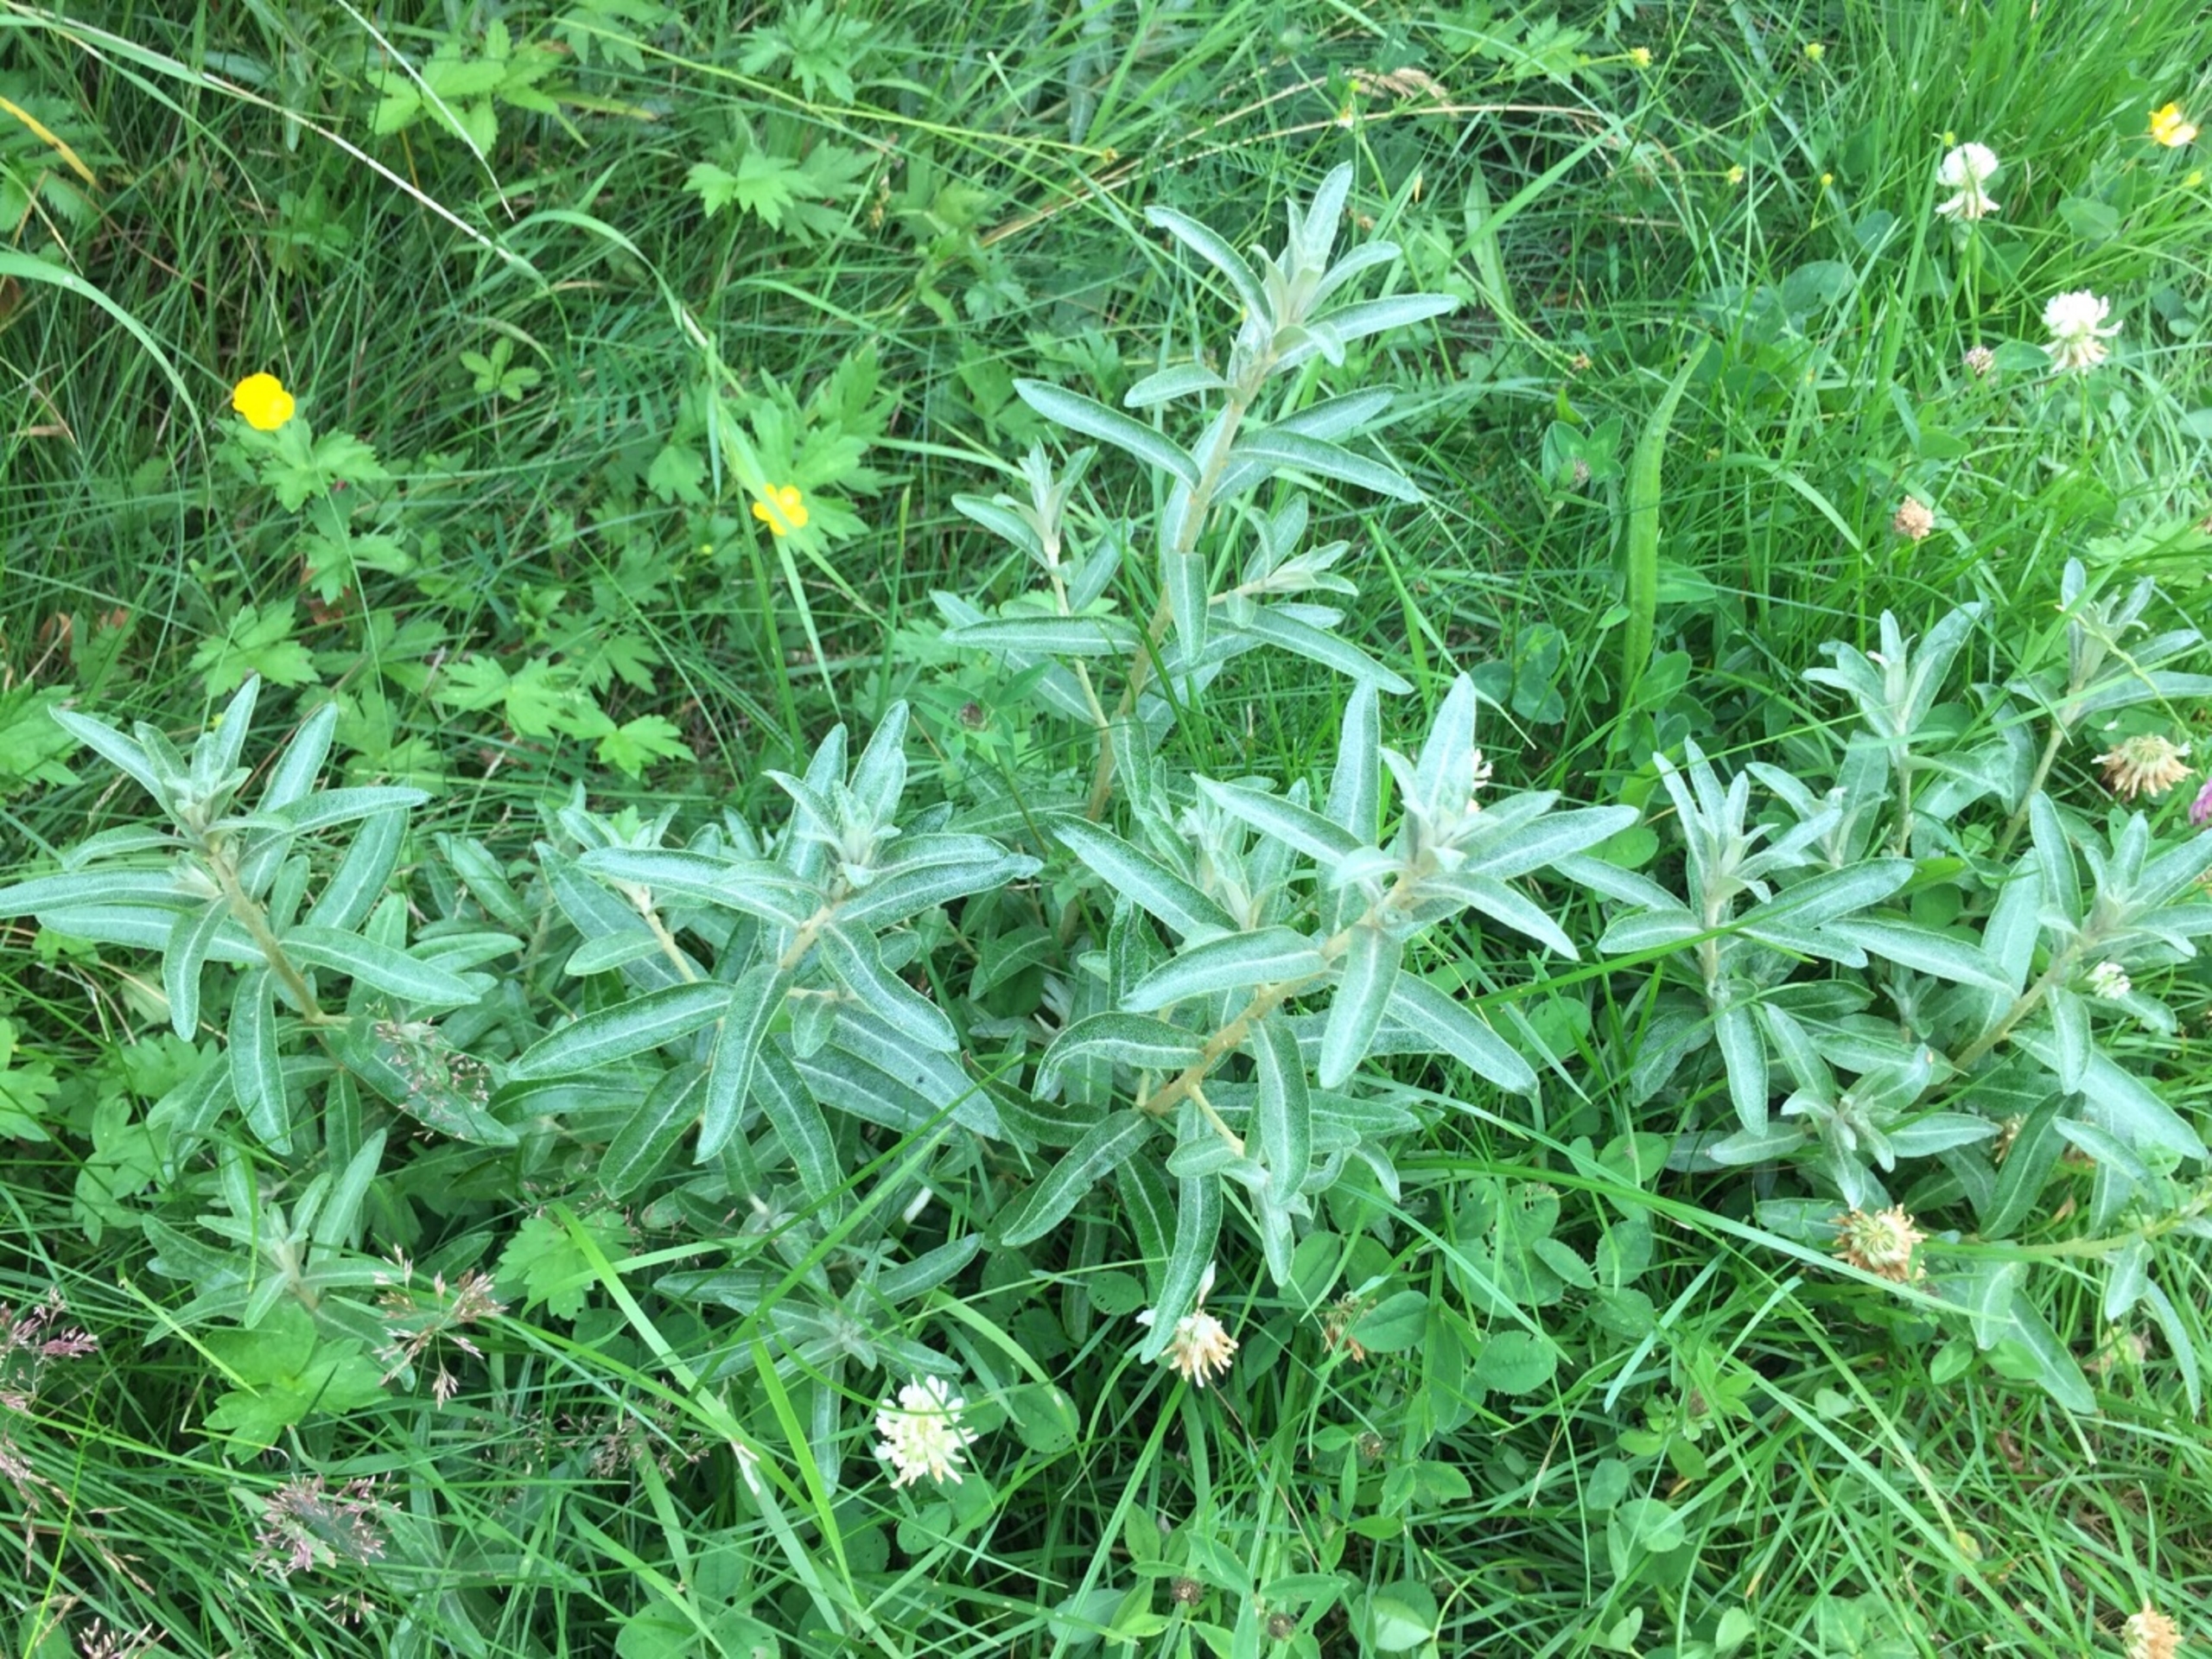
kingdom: Plantae
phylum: Tracheophyta
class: Magnoliopsida
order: Rosales
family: Elaeagnaceae
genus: Hippophae
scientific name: Hippophae rhamnoides
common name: Havtorn
